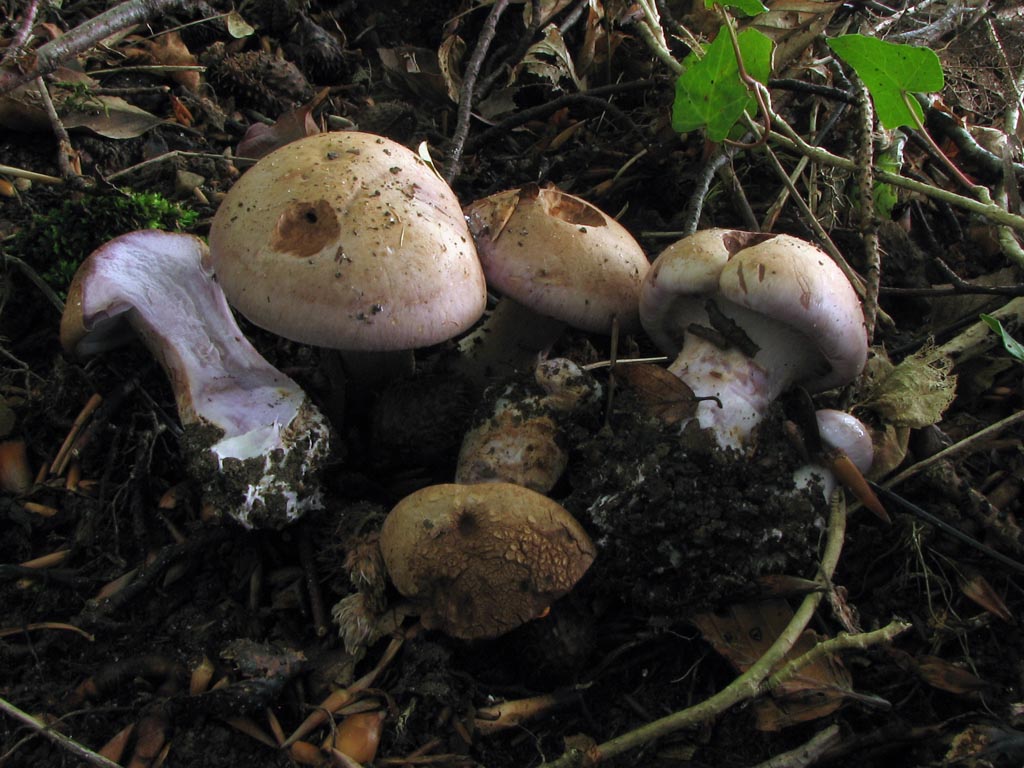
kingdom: Fungi
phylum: Basidiomycota
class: Agaricomycetes
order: Agaricales
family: Cortinariaceae
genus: Cortinarius
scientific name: Cortinarius largus
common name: violetrandet slørhat
